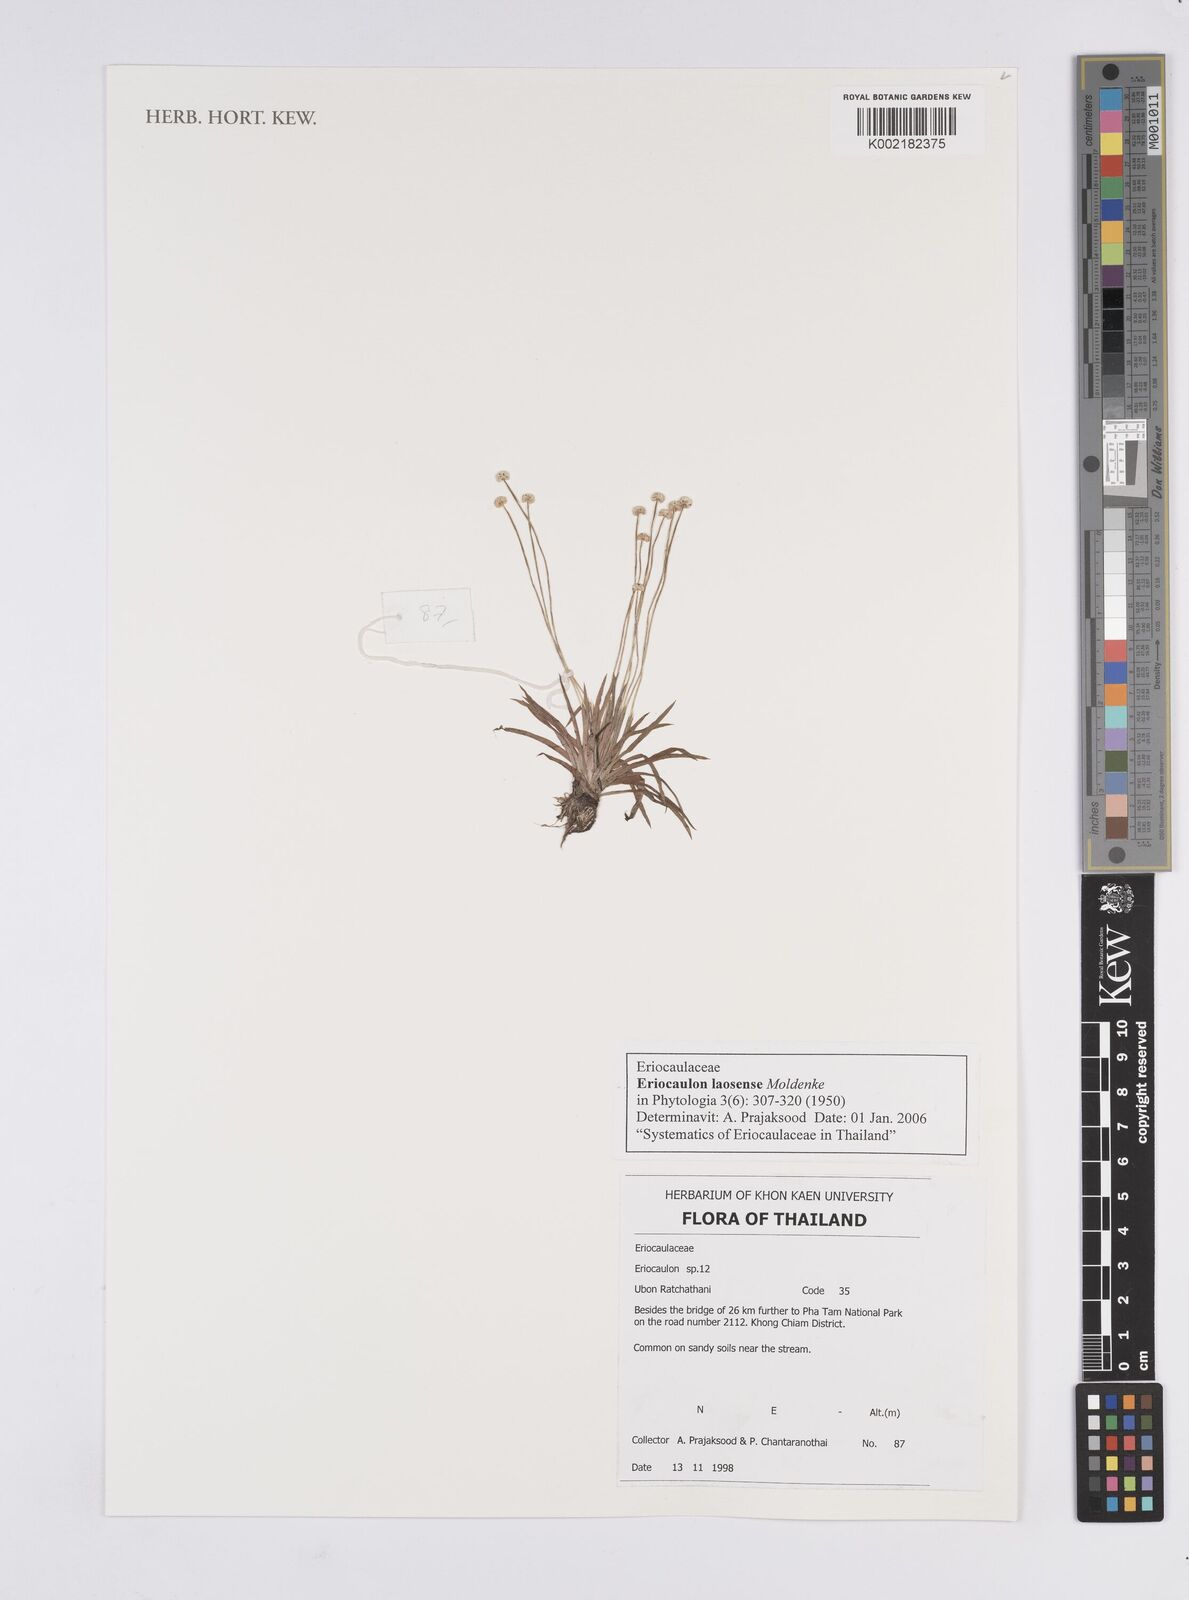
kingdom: Plantae
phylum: Tracheophyta
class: Liliopsida
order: Poales
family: Eriocaulaceae
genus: Eriocaulon
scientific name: Eriocaulon laosense
